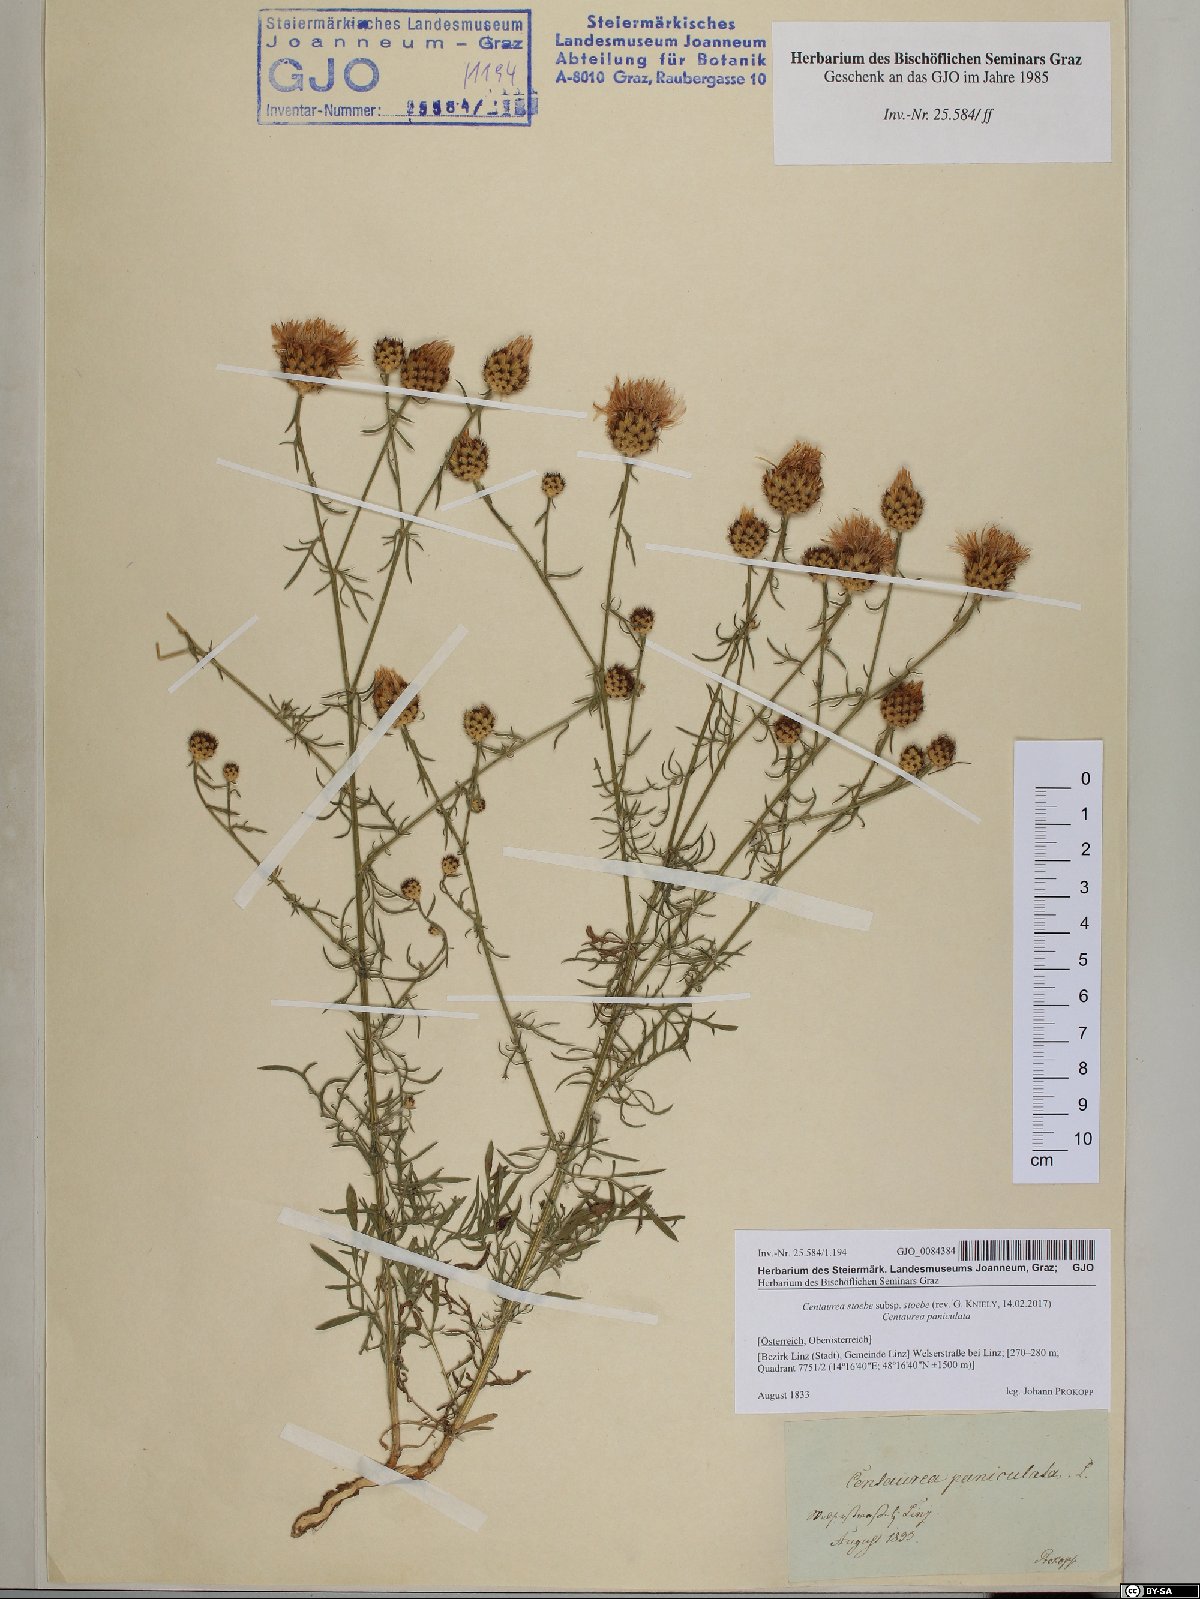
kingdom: Plantae
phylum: Tracheophyta
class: Magnoliopsida
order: Asterales
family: Asteraceae
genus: Centaurea
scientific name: Centaurea stoebe
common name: Spotted knapweed
